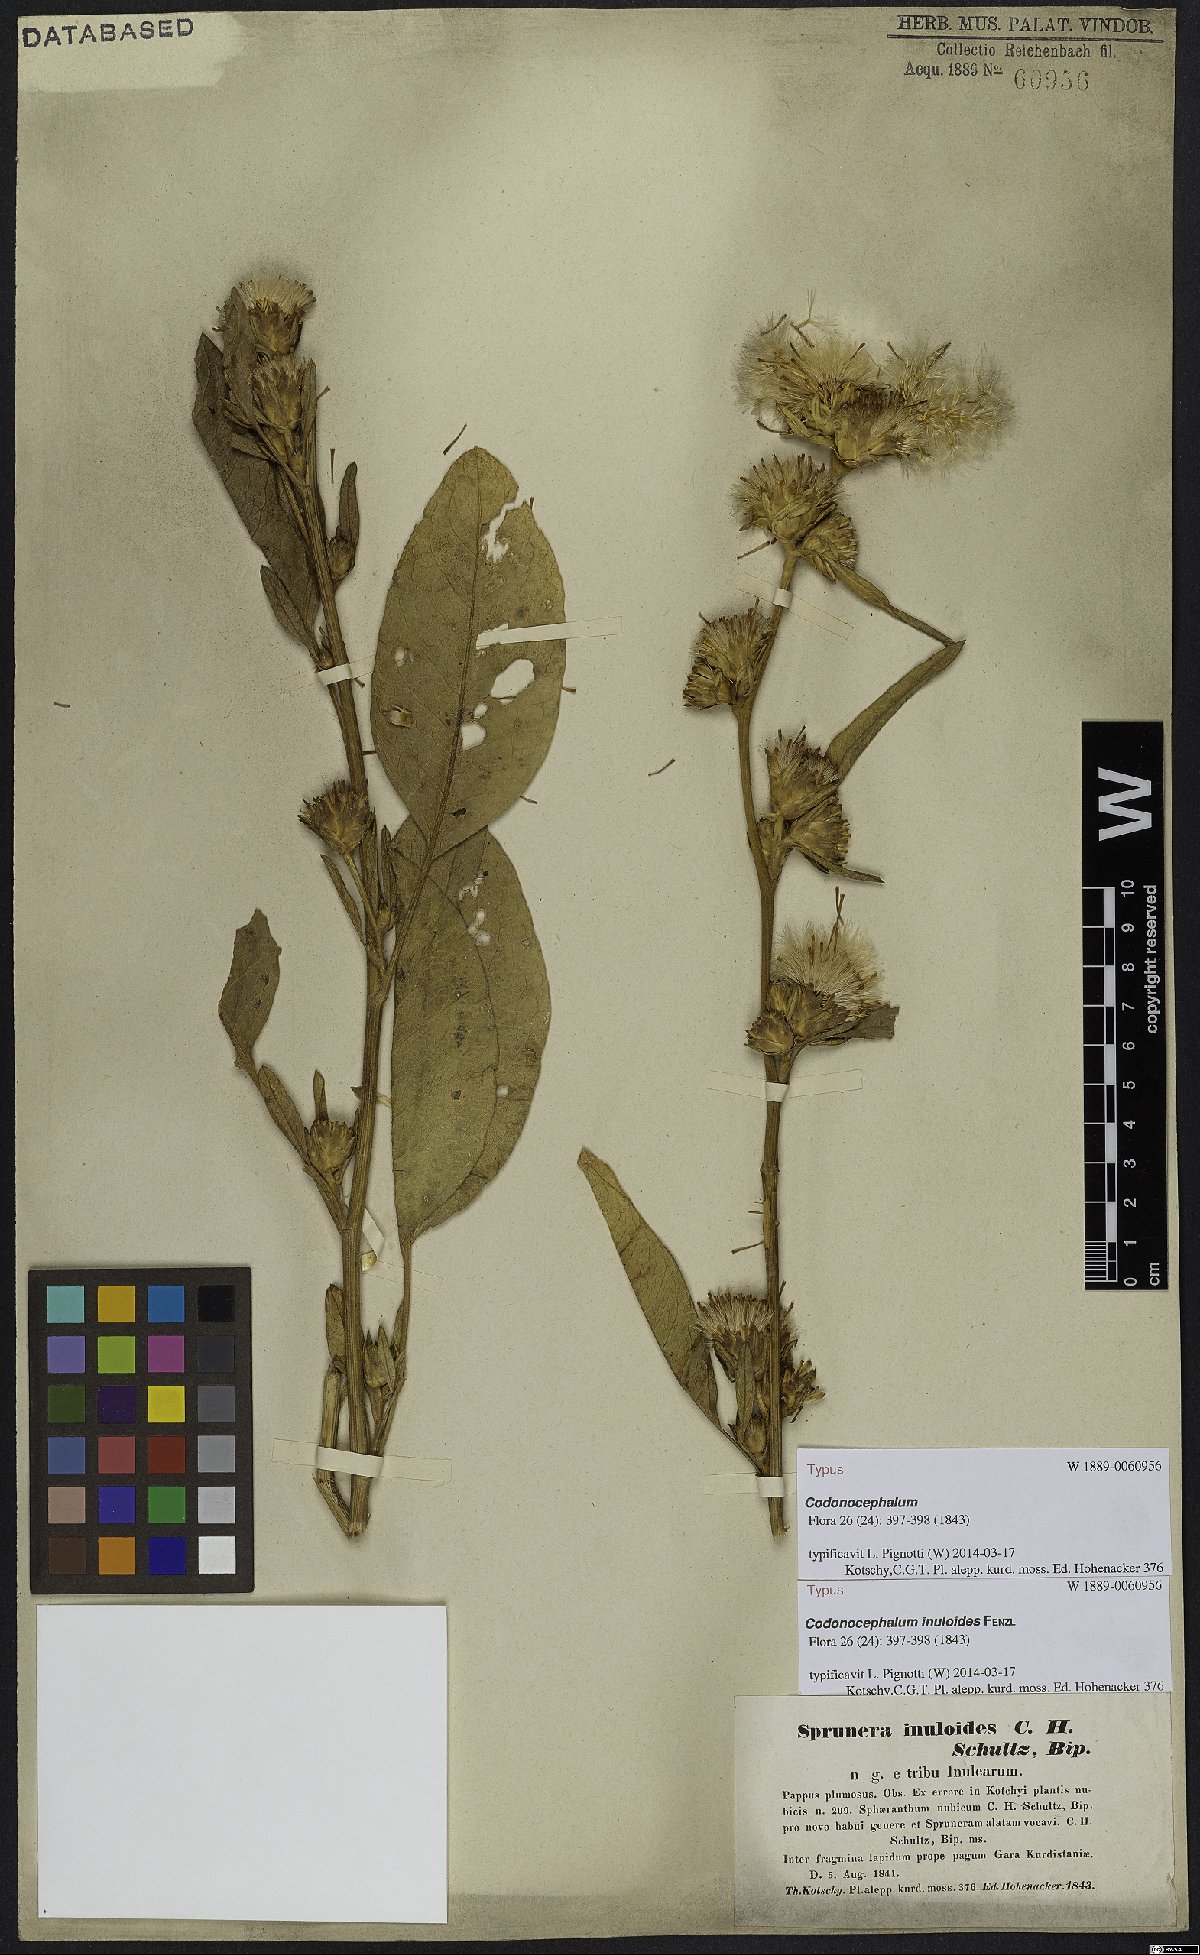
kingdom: Plantae
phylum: Tracheophyta
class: Magnoliopsida
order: Asterales
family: Asteraceae
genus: Inula
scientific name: Inula inuloides
